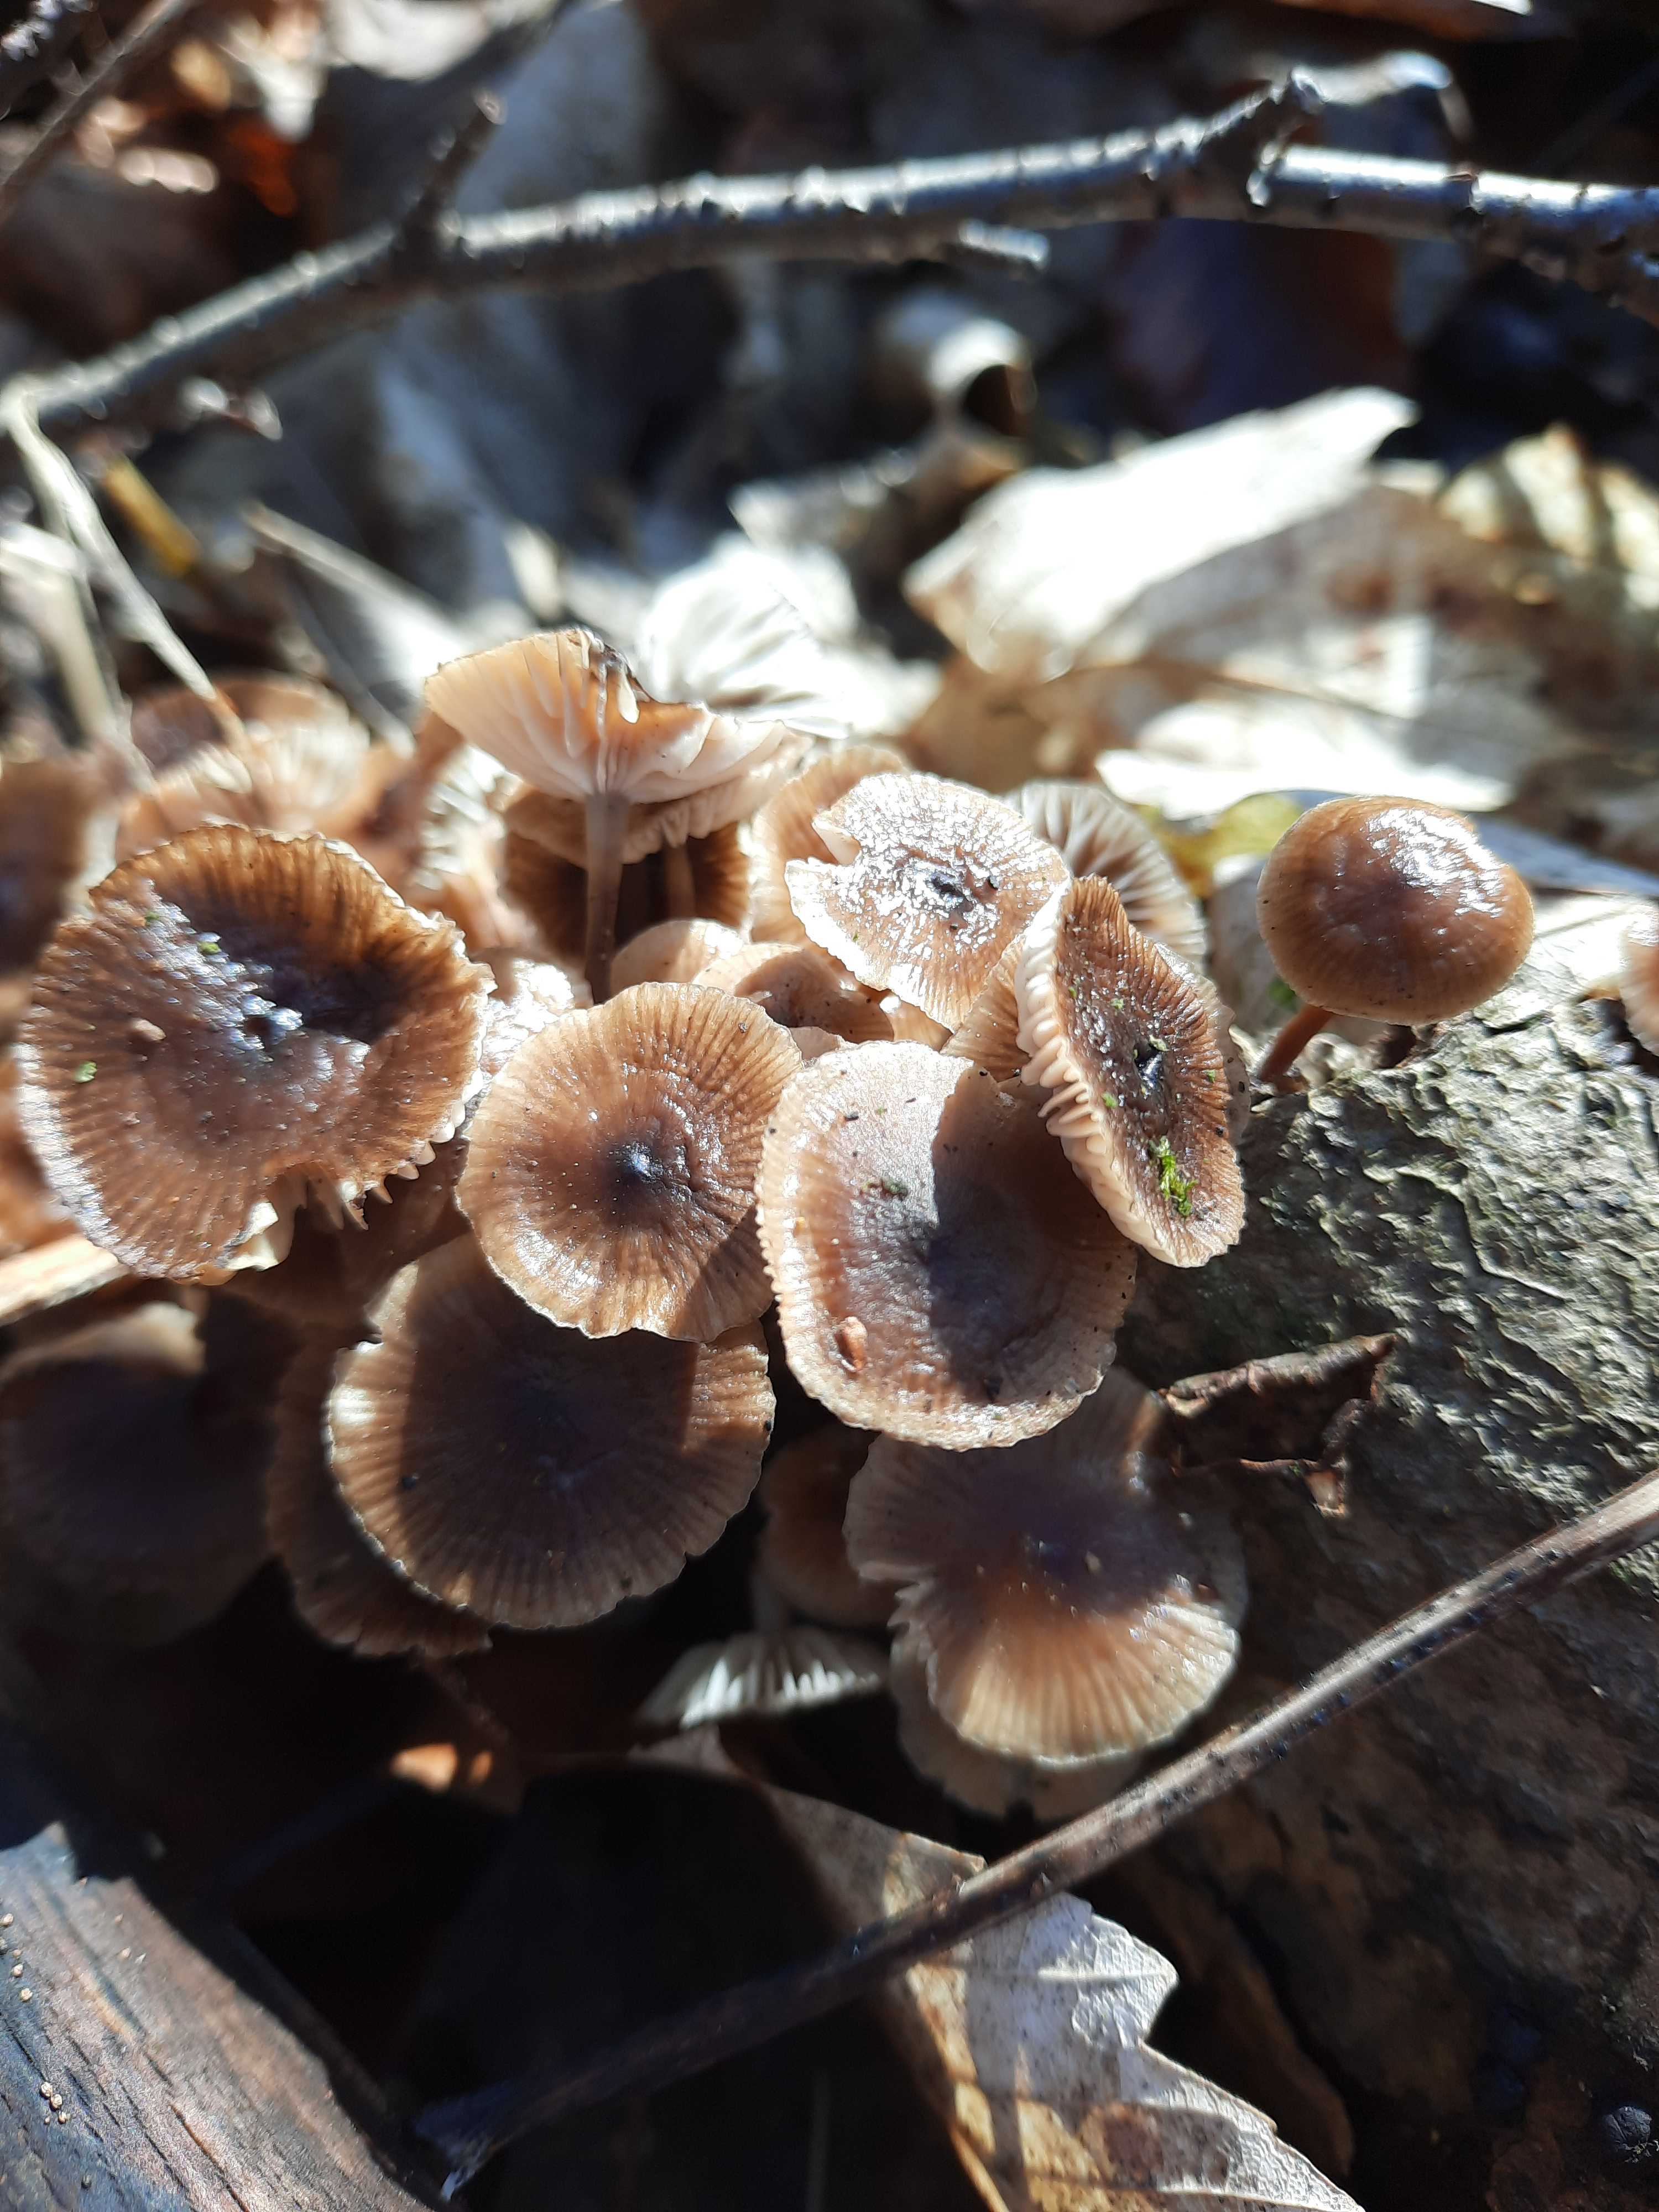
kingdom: Fungi
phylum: Basidiomycota
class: Agaricomycetes
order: Agaricales
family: Mycenaceae
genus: Mycena
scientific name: Mycena tintinnabulum
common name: vinter-huesvamp
